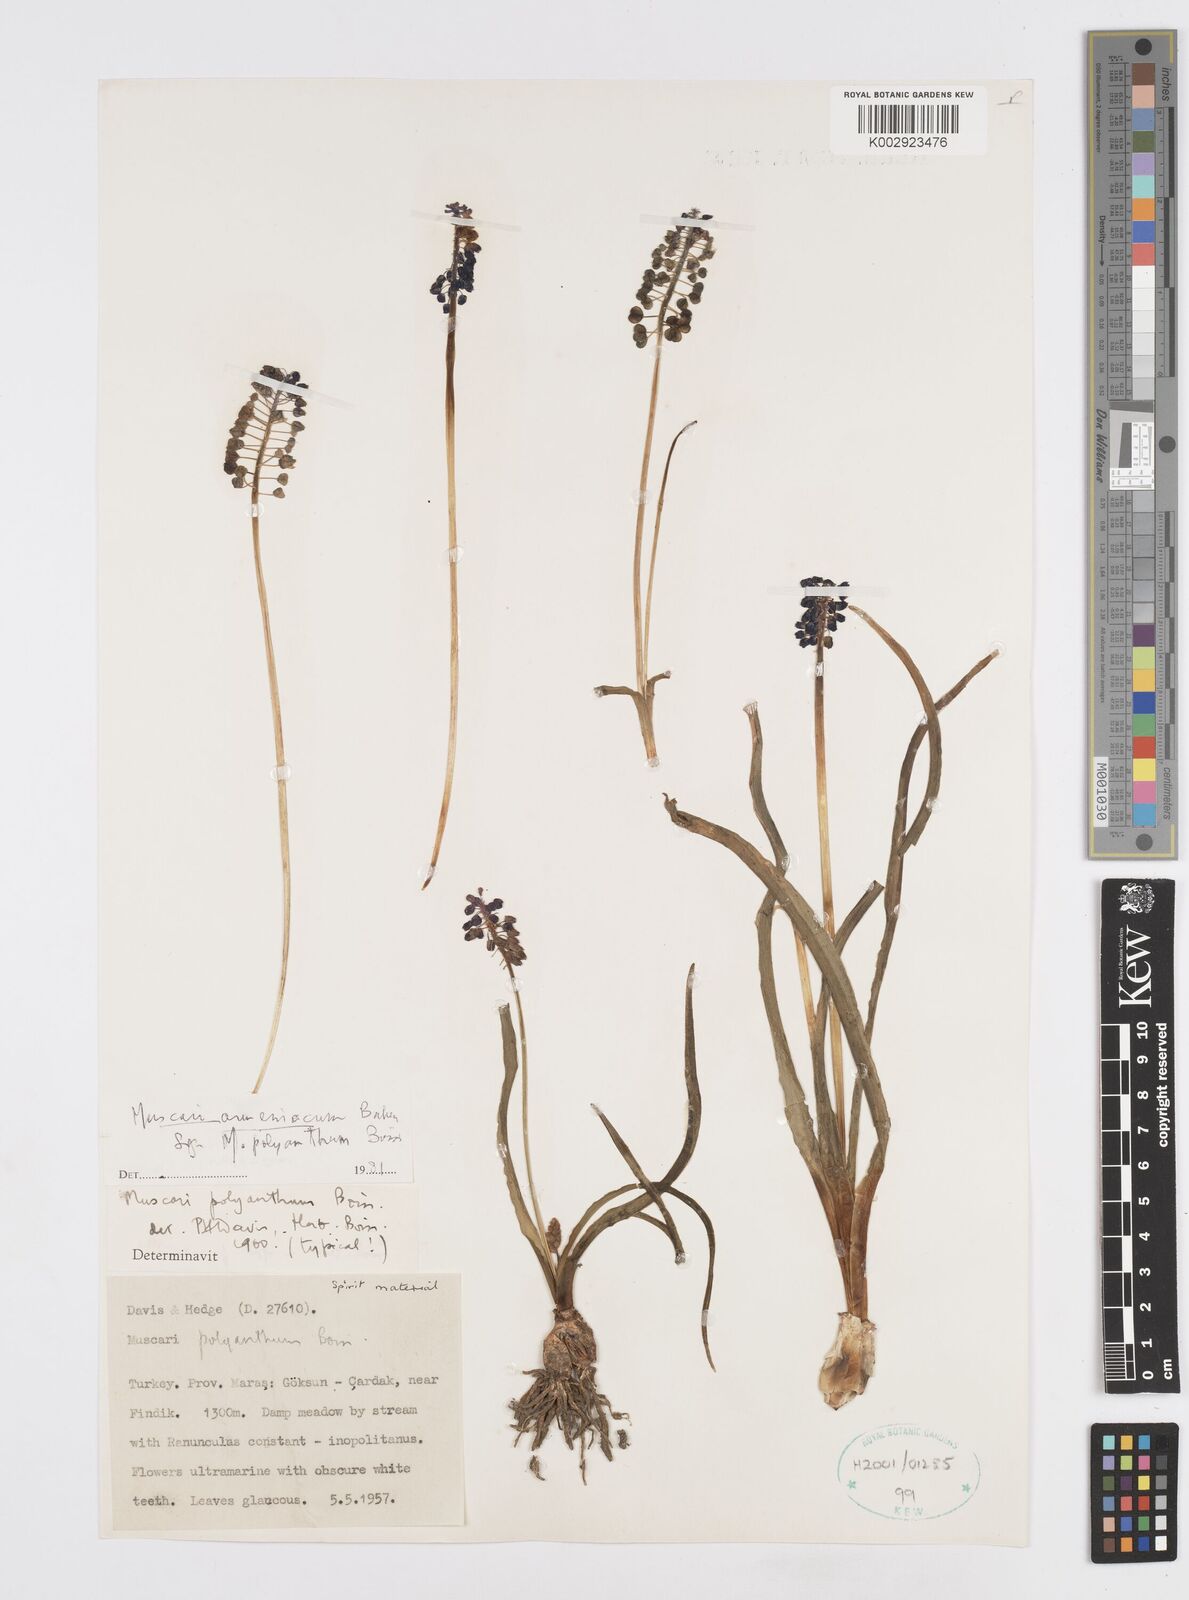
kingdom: Plantae
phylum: Tracheophyta
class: Liliopsida
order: Asparagales
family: Asparagaceae
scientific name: Asparagaceae
